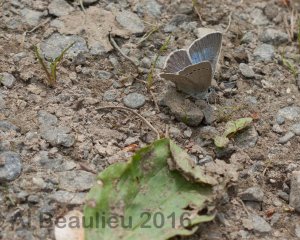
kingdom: Animalia
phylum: Arthropoda
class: Insecta
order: Lepidoptera
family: Lycaenidae
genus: Glaucopsyche
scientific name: Glaucopsyche lygdamus
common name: Silvery Blue
